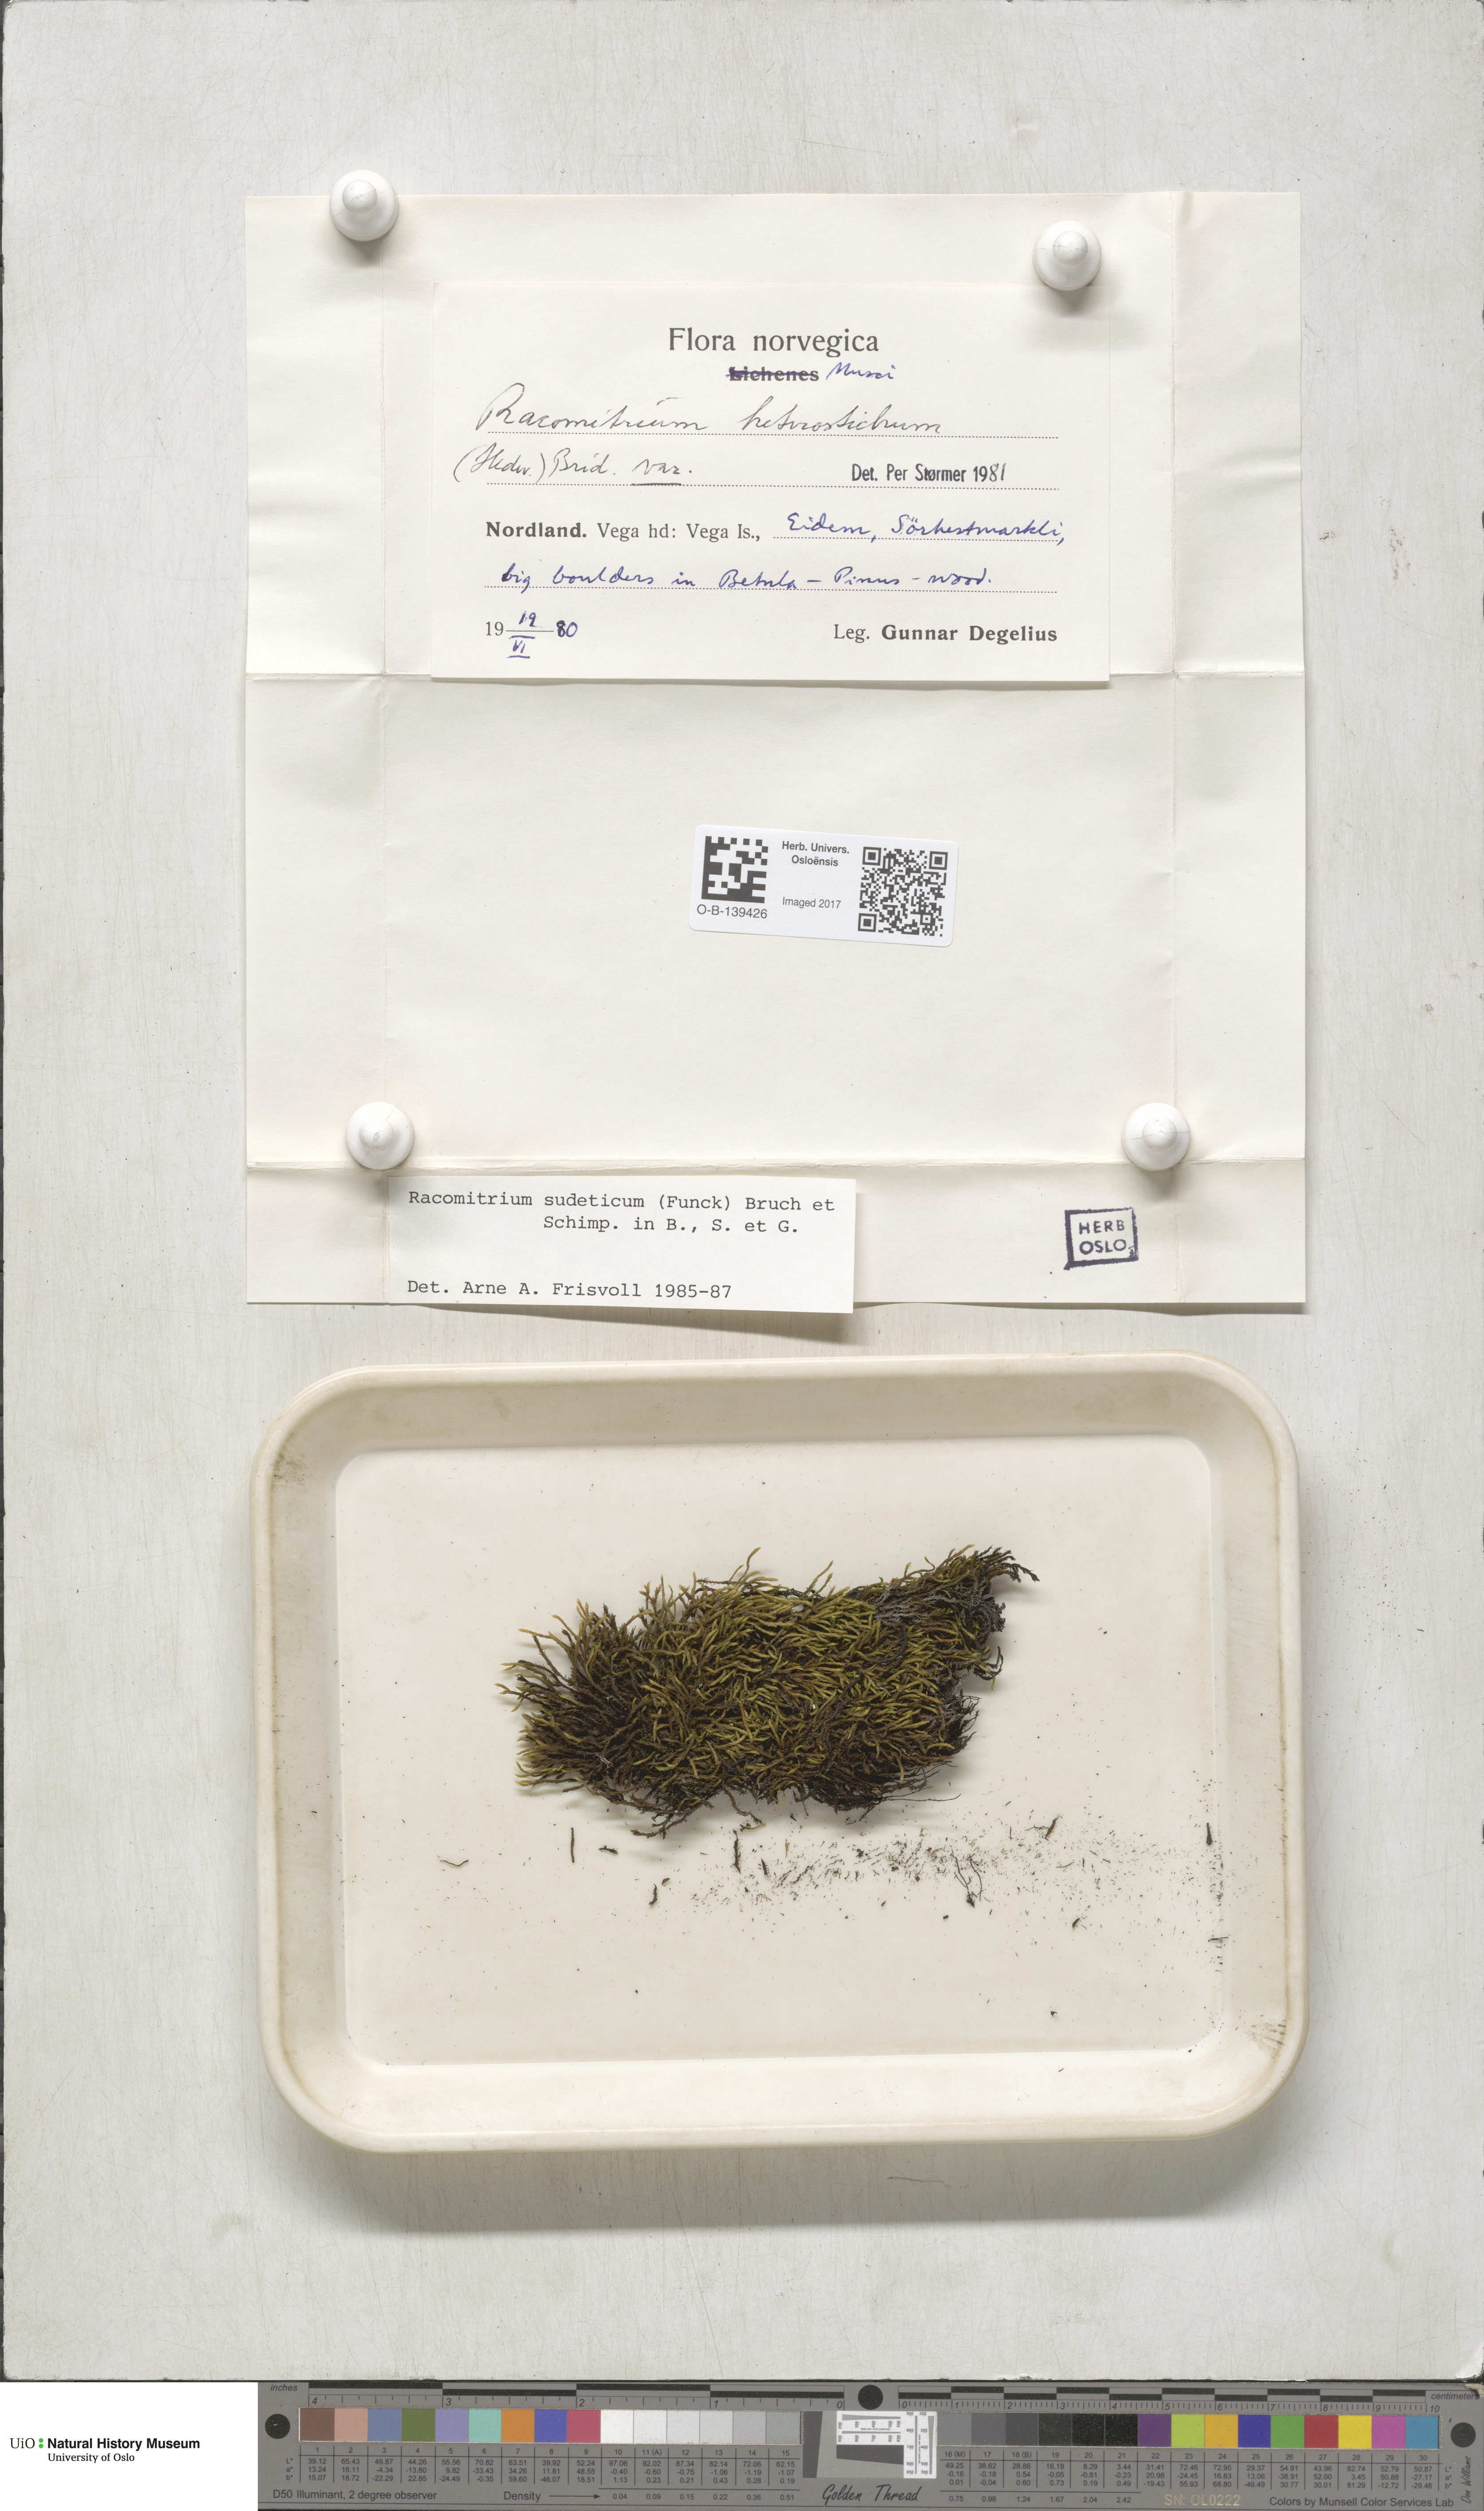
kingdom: Plantae
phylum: Bryophyta
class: Bryopsida
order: Grimmiales
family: Grimmiaceae
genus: Bucklandiella
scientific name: Bucklandiella sudetica
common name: Slender fringe-moss
